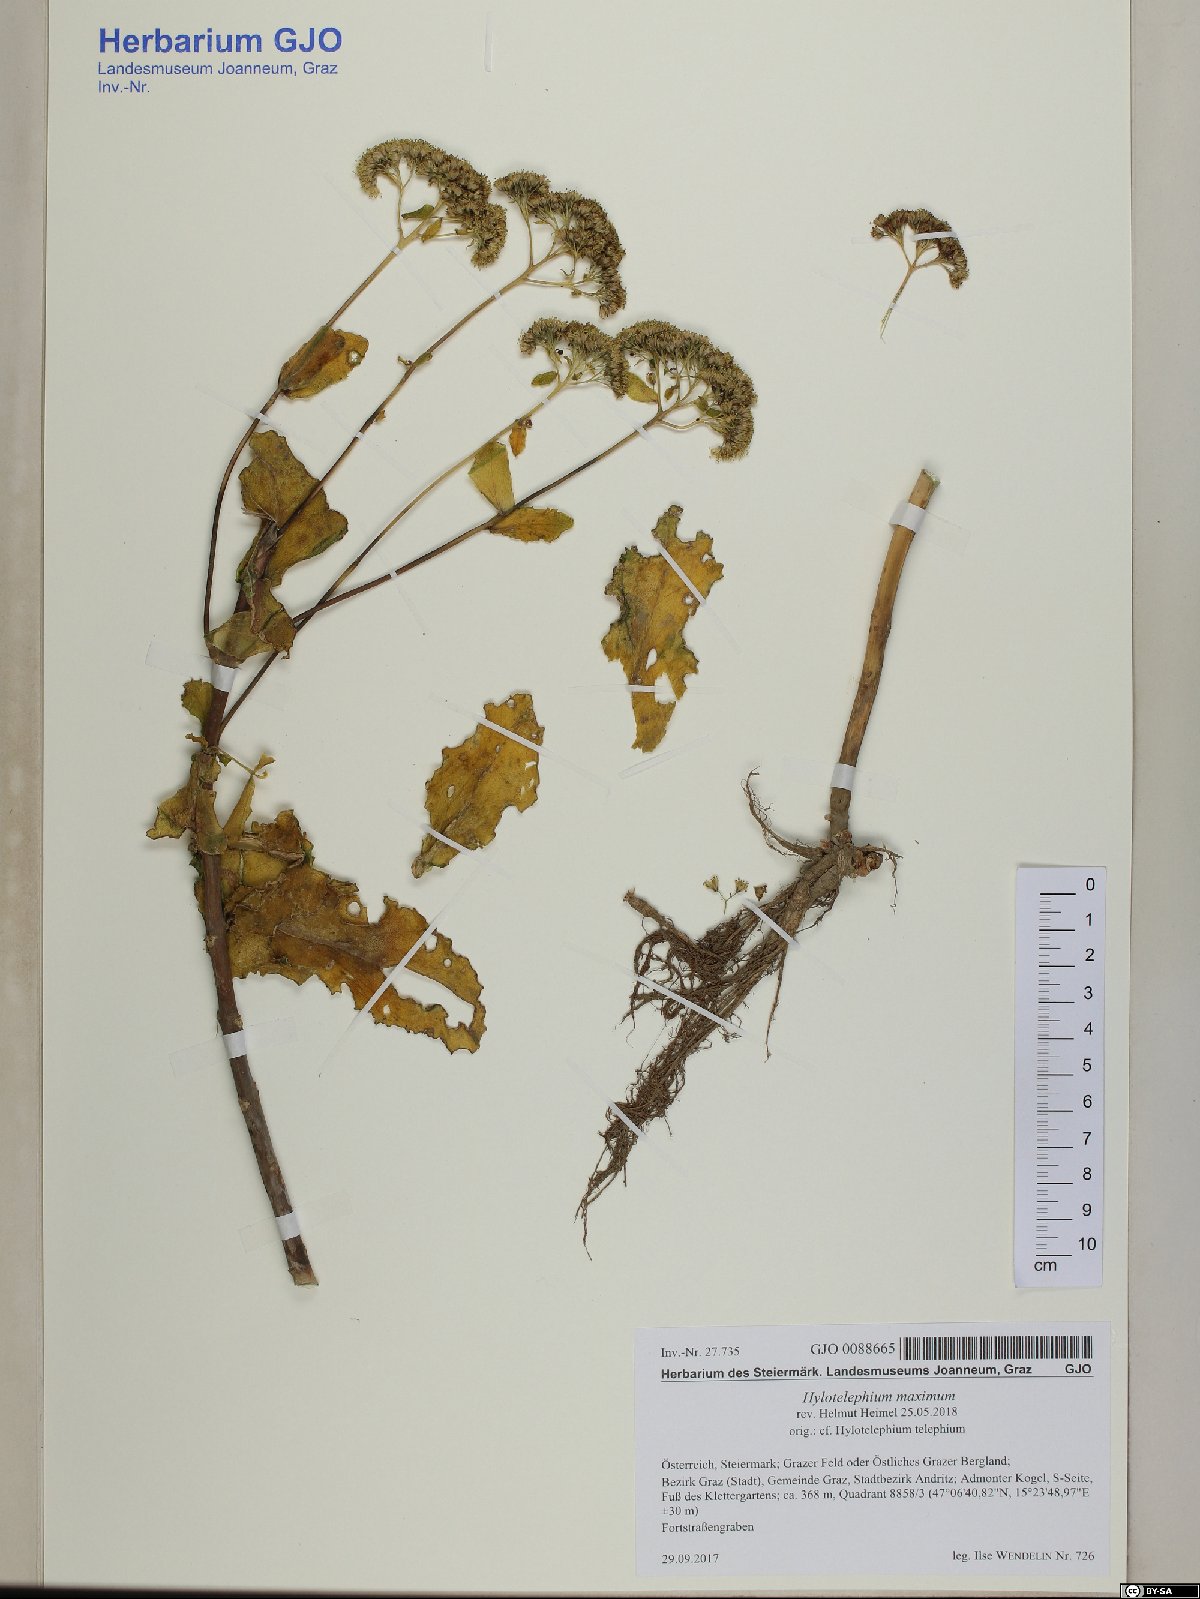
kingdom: Plantae
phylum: Tracheophyta
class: Magnoliopsida
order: Saxifragales
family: Crassulaceae
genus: Hylotelephium
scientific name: Hylotelephium maximum
